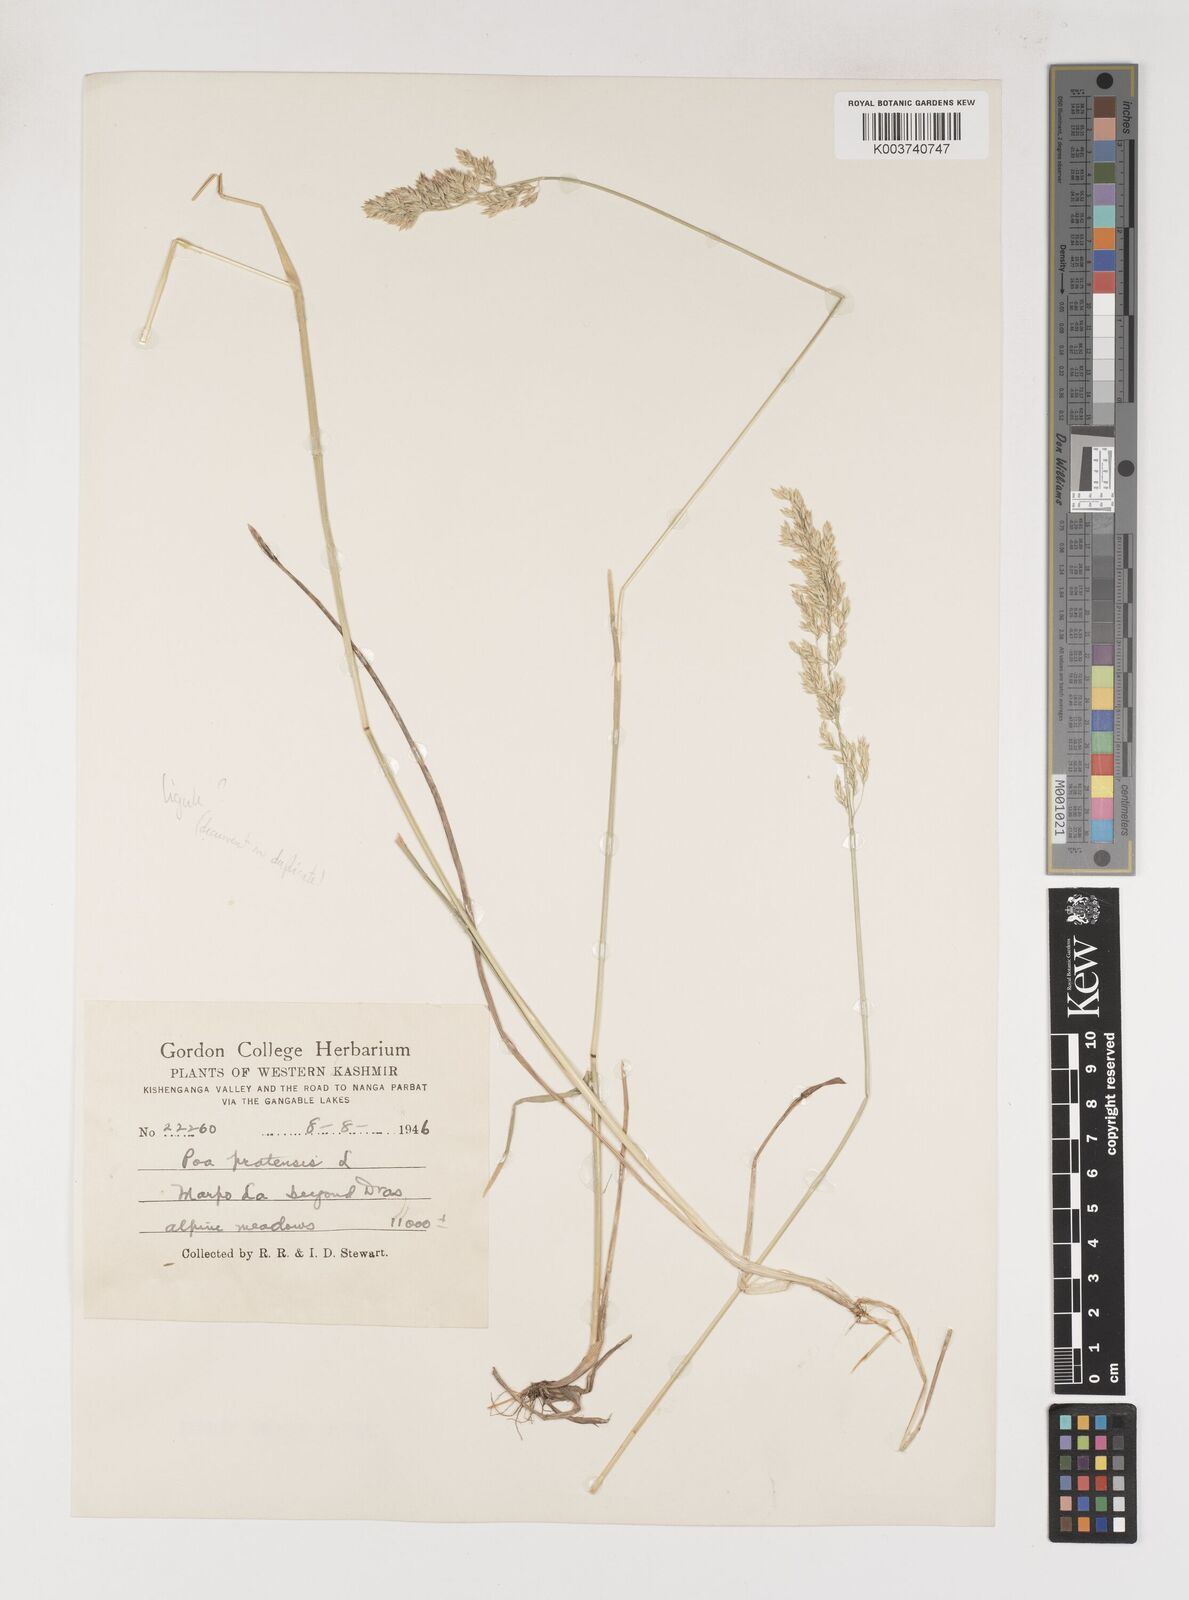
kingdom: Plantae
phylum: Tracheophyta
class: Liliopsida
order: Poales
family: Poaceae
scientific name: Poaceae
